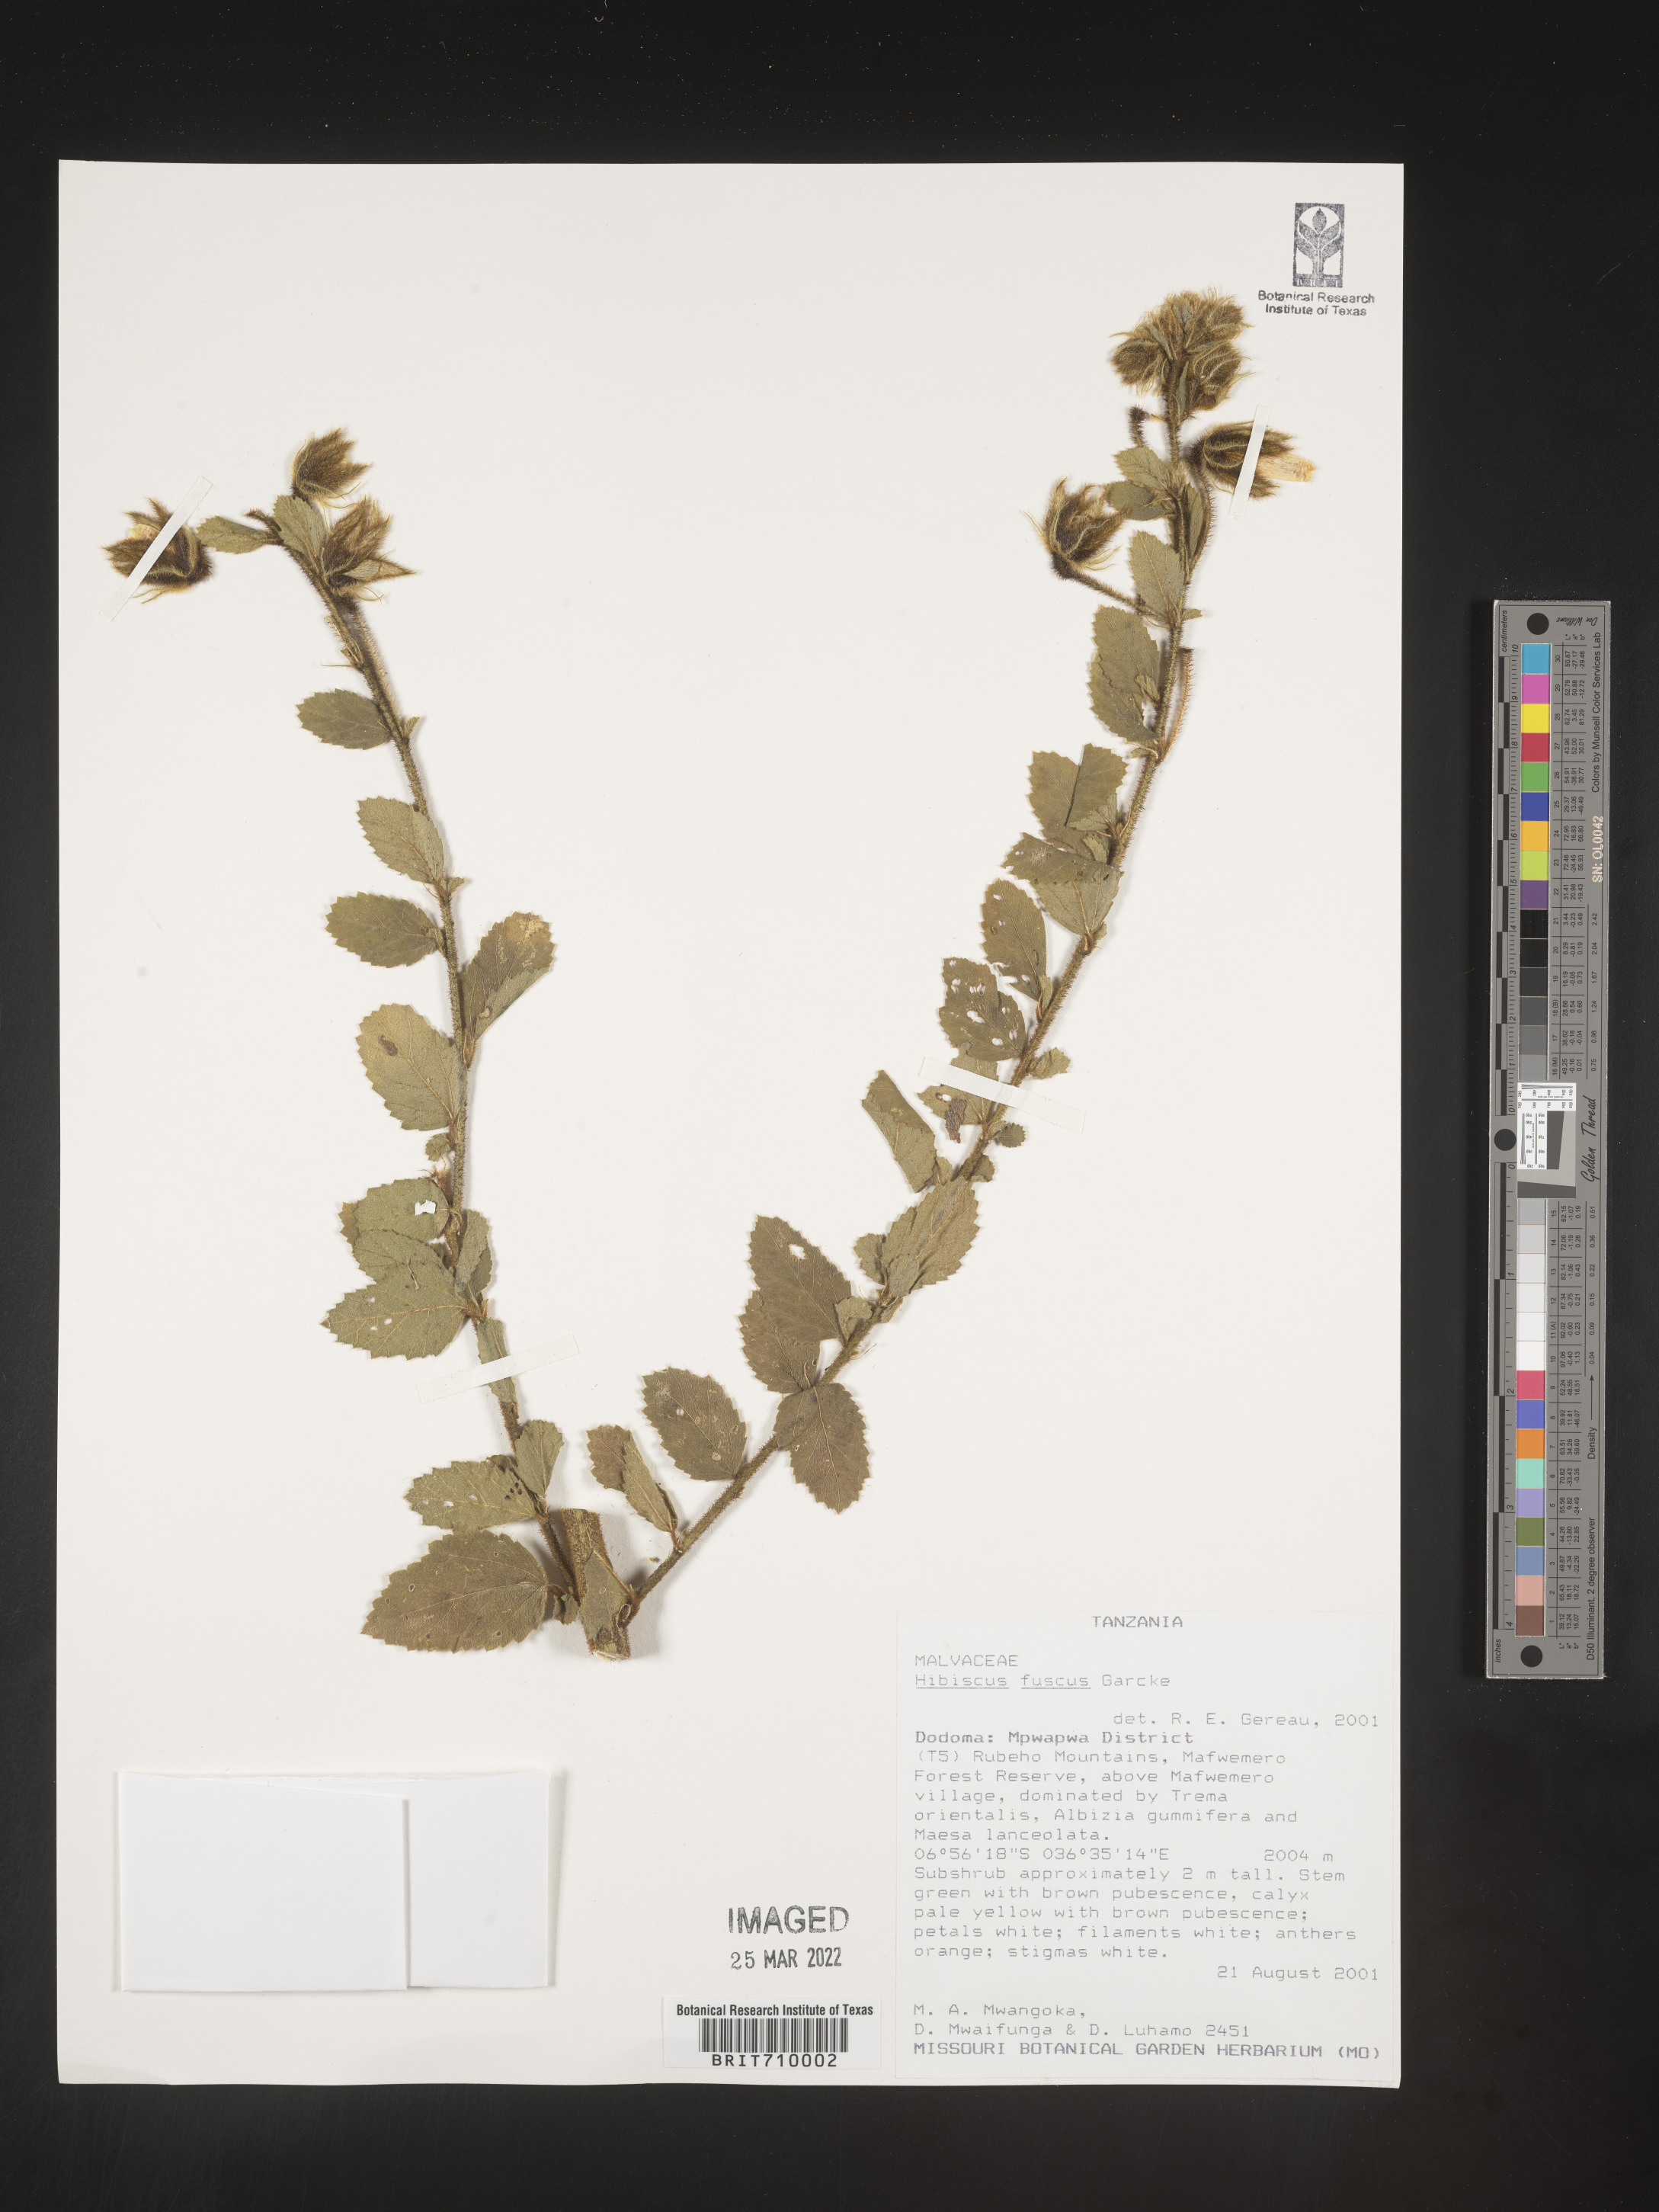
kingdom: Plantae
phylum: Tracheophyta
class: Magnoliopsida
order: Malvales
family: Malvaceae
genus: Hibiscus
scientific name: Hibiscus
